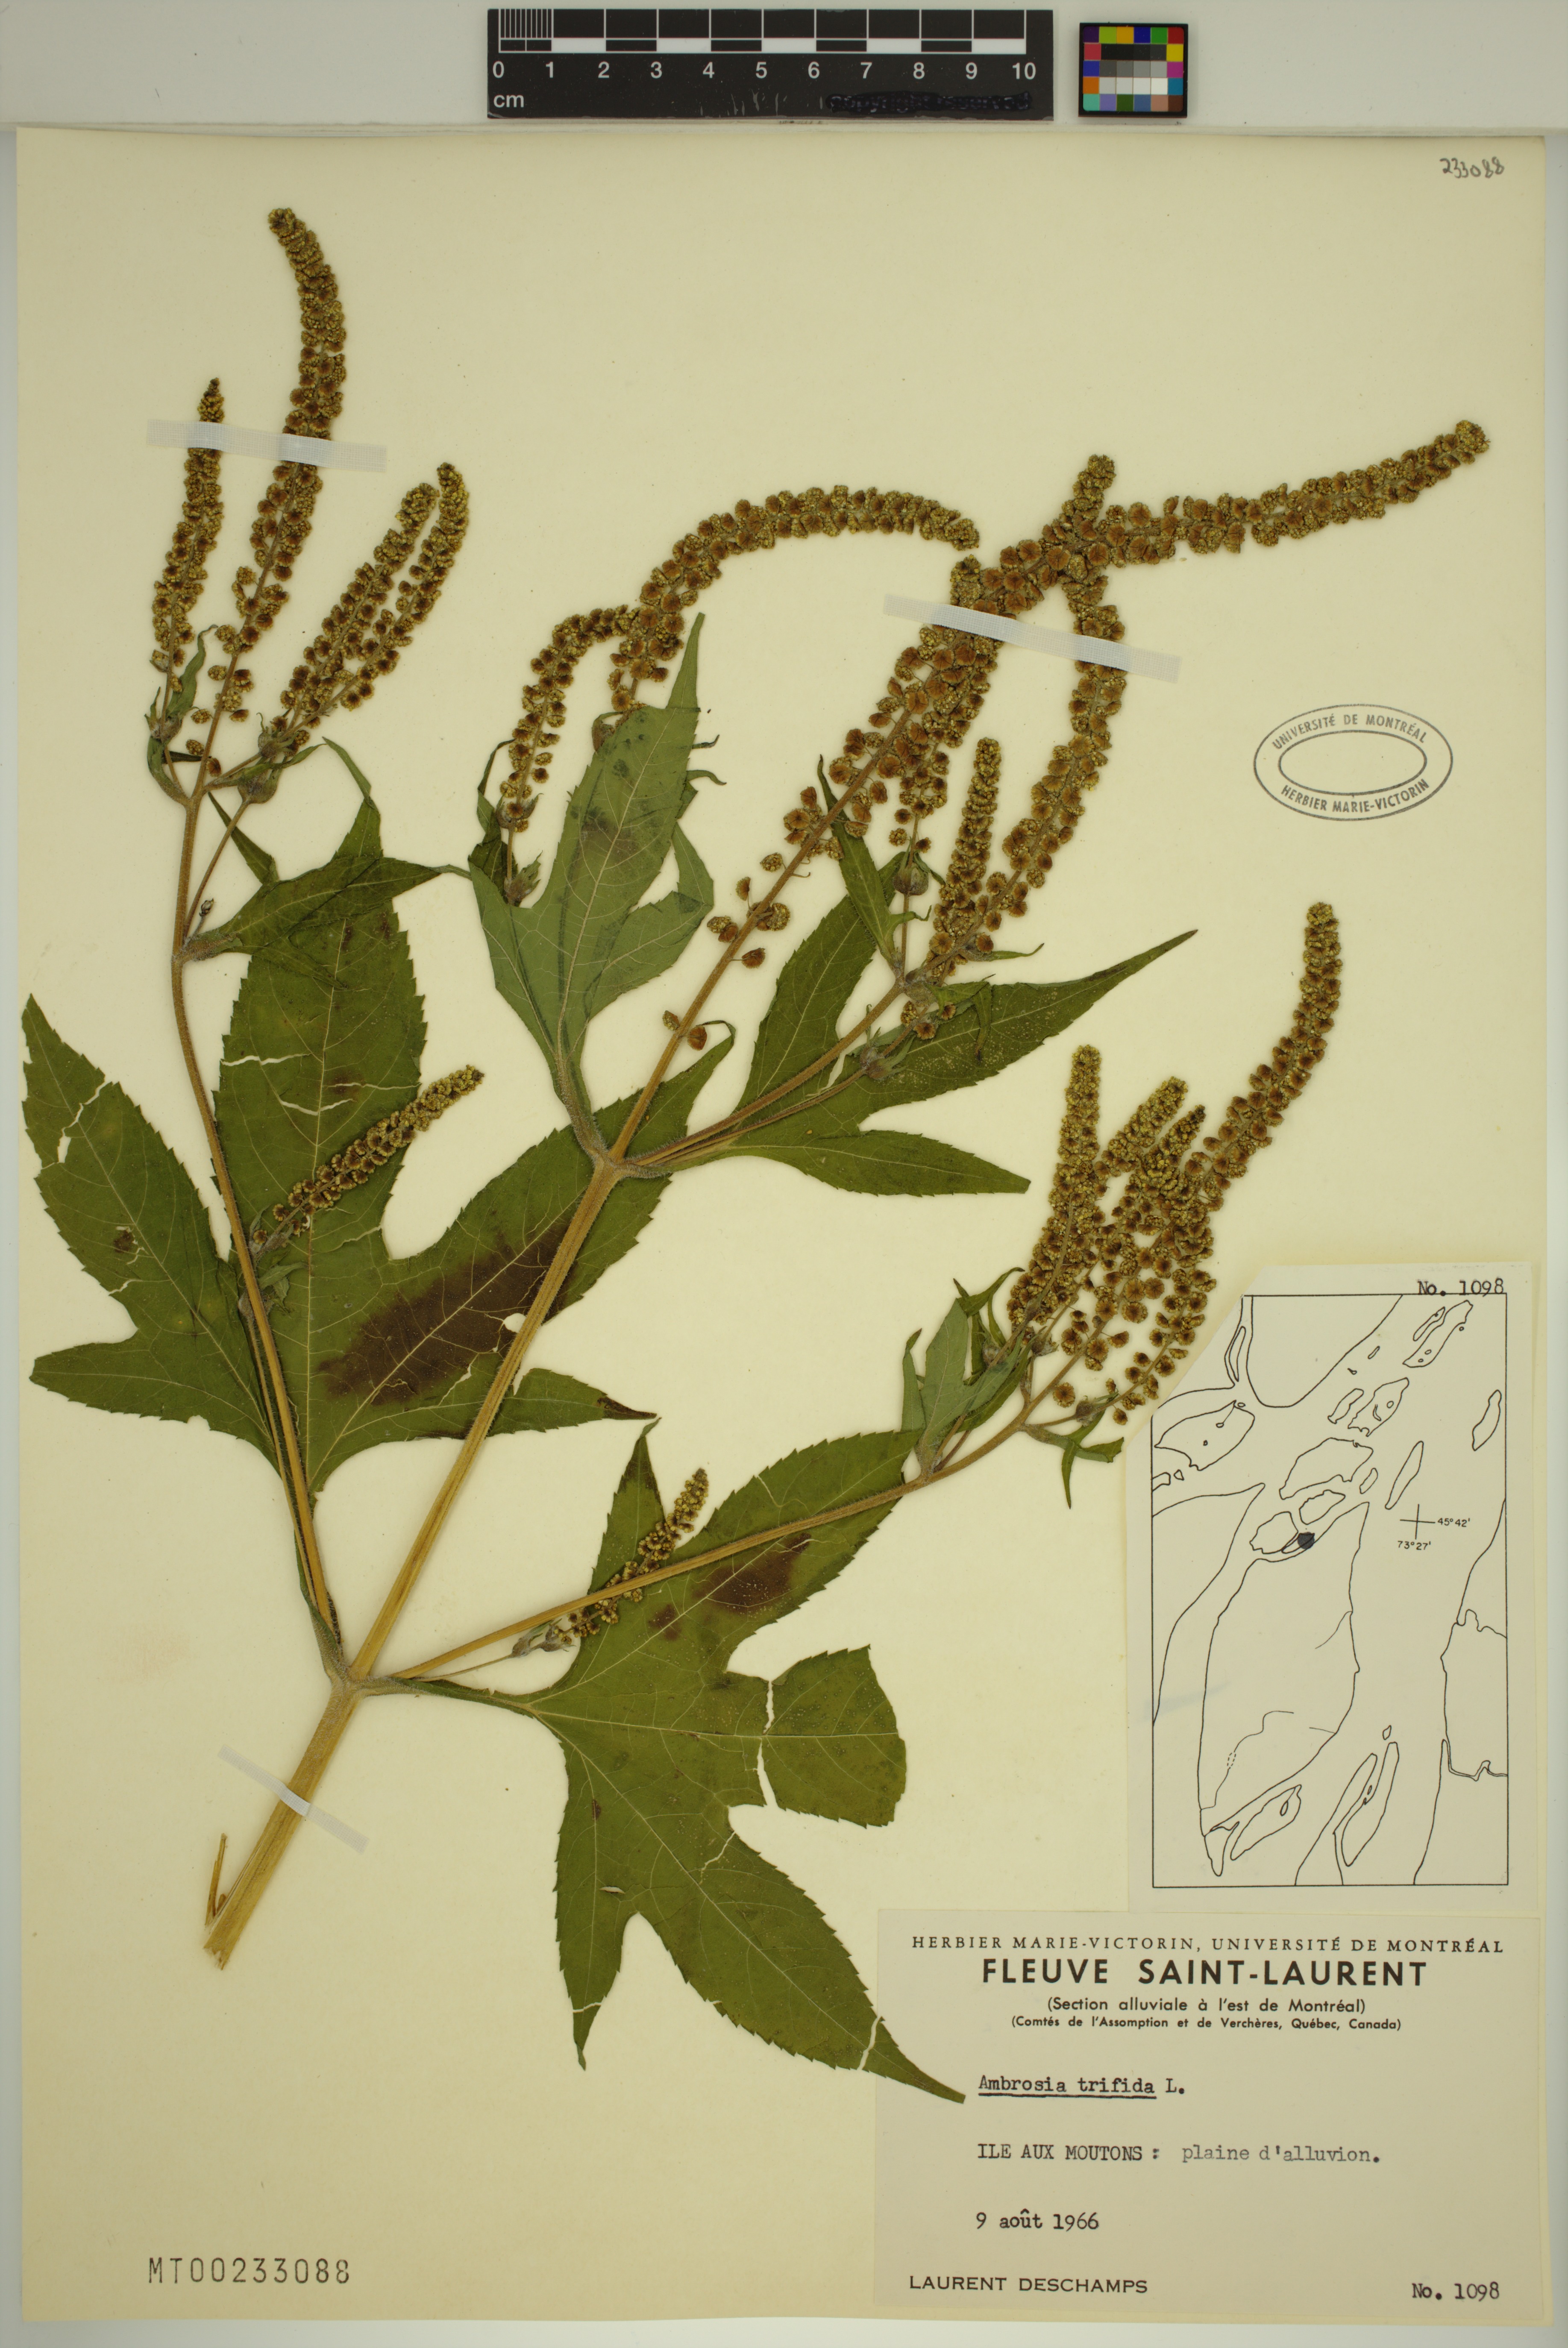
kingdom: Plantae
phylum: Tracheophyta
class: Magnoliopsida
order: Asterales
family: Asteraceae
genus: Ambrosia
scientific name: Ambrosia trifida
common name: Giant ragweed
